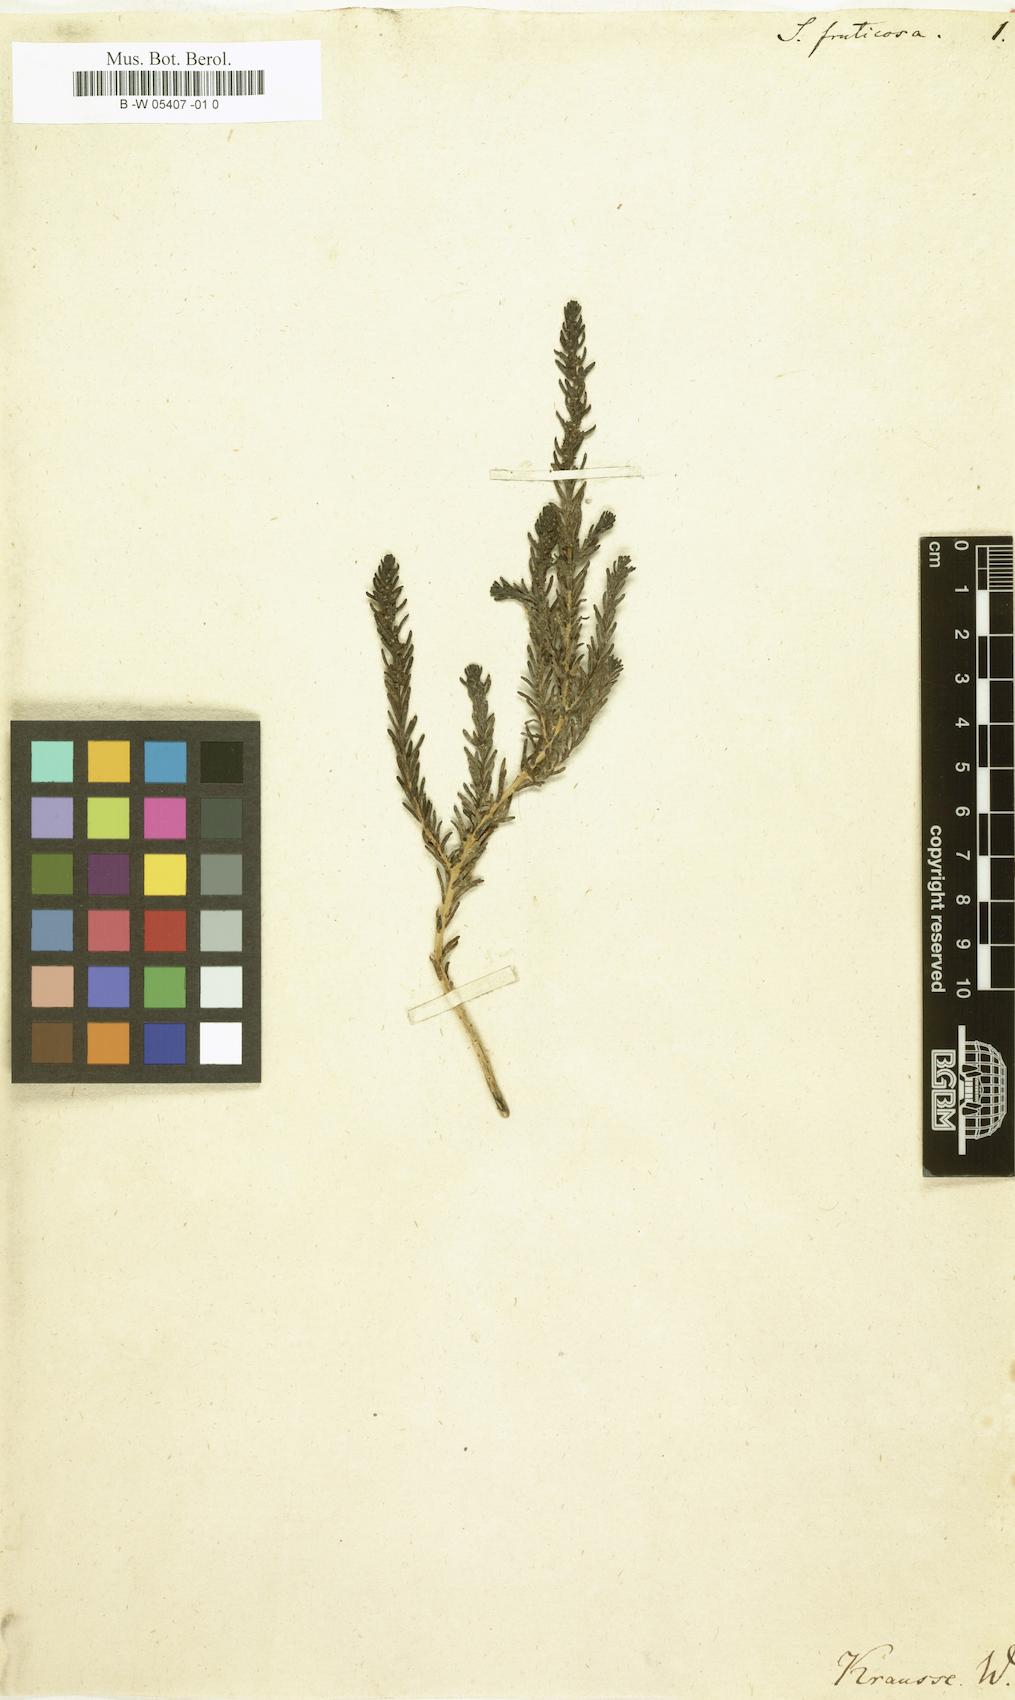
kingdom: Plantae
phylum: Tracheophyta
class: Magnoliopsida
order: Caryophyllales
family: Amaranthaceae
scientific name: Amaranthaceae
